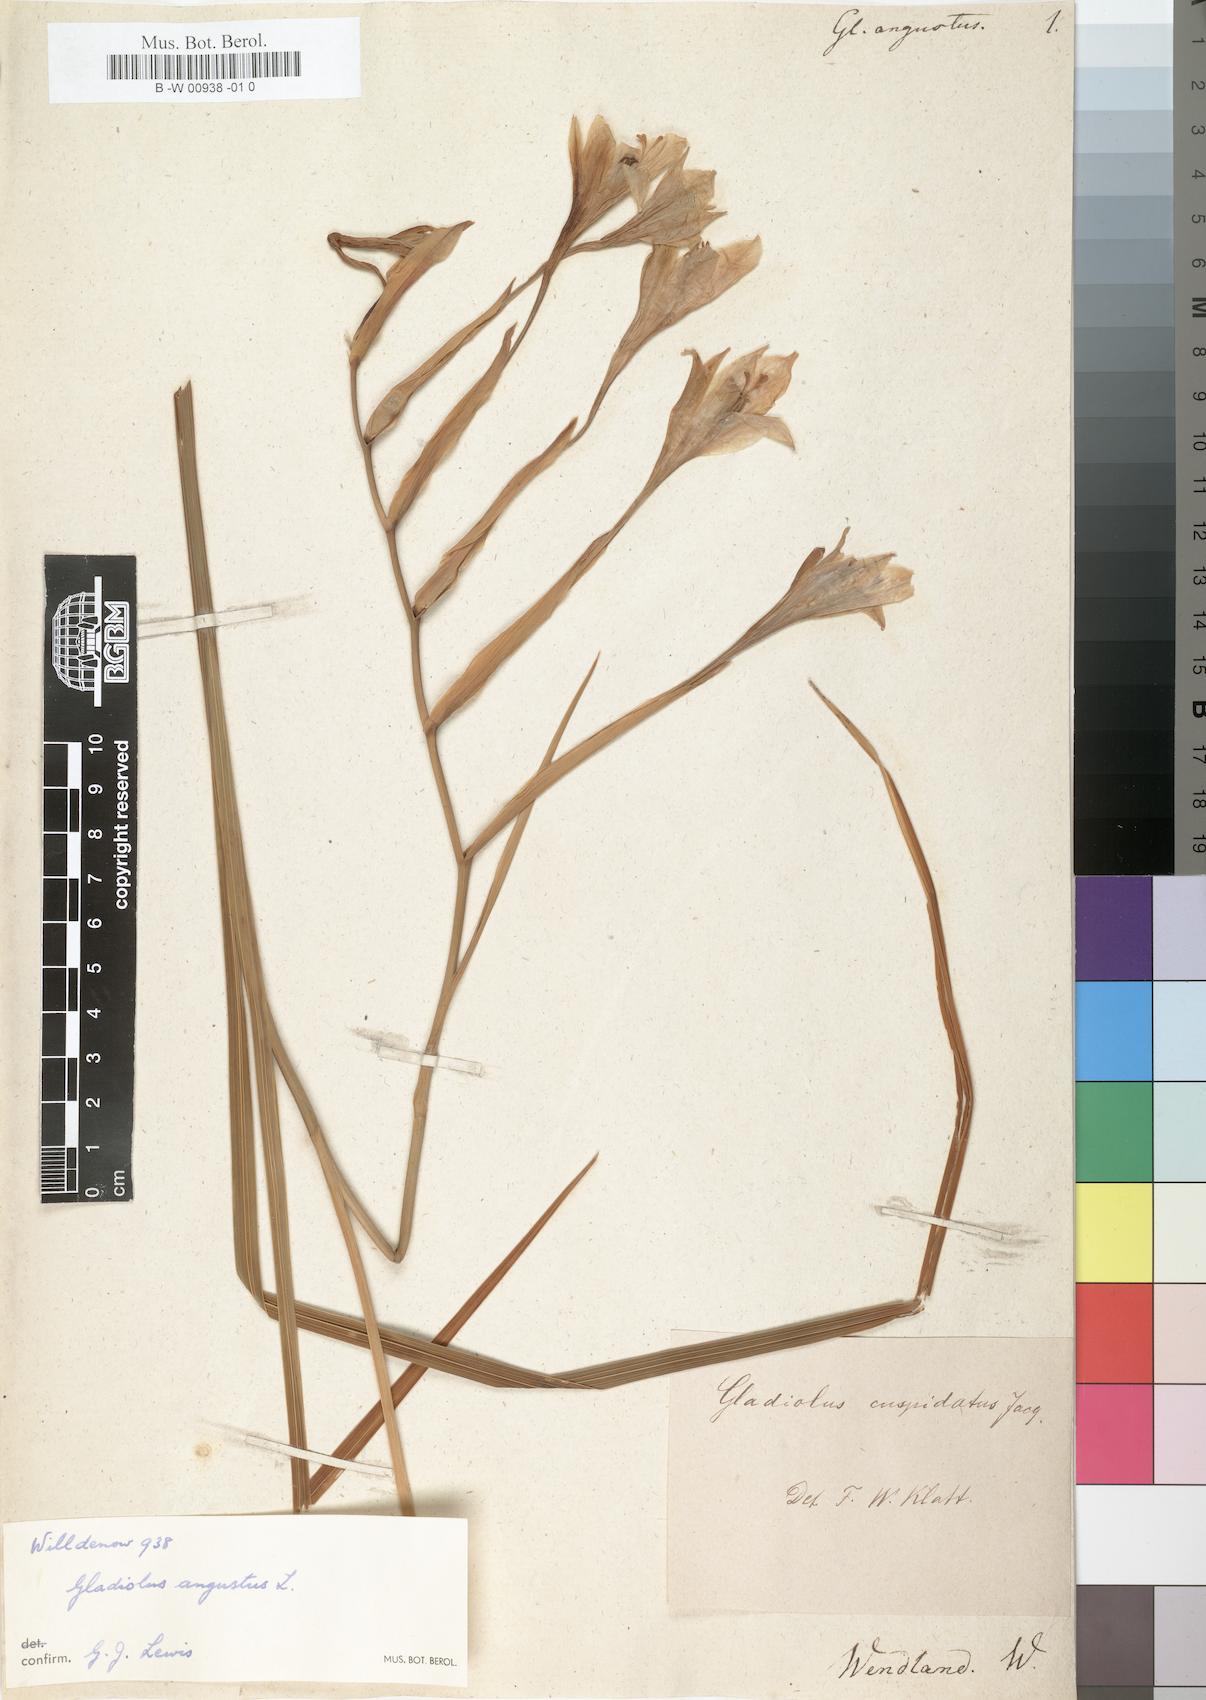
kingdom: Plantae
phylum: Tracheophyta
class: Liliopsida
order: Asparagales
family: Iridaceae
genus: Gladiolus
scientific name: Gladiolus angustus
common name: Painted-lady
